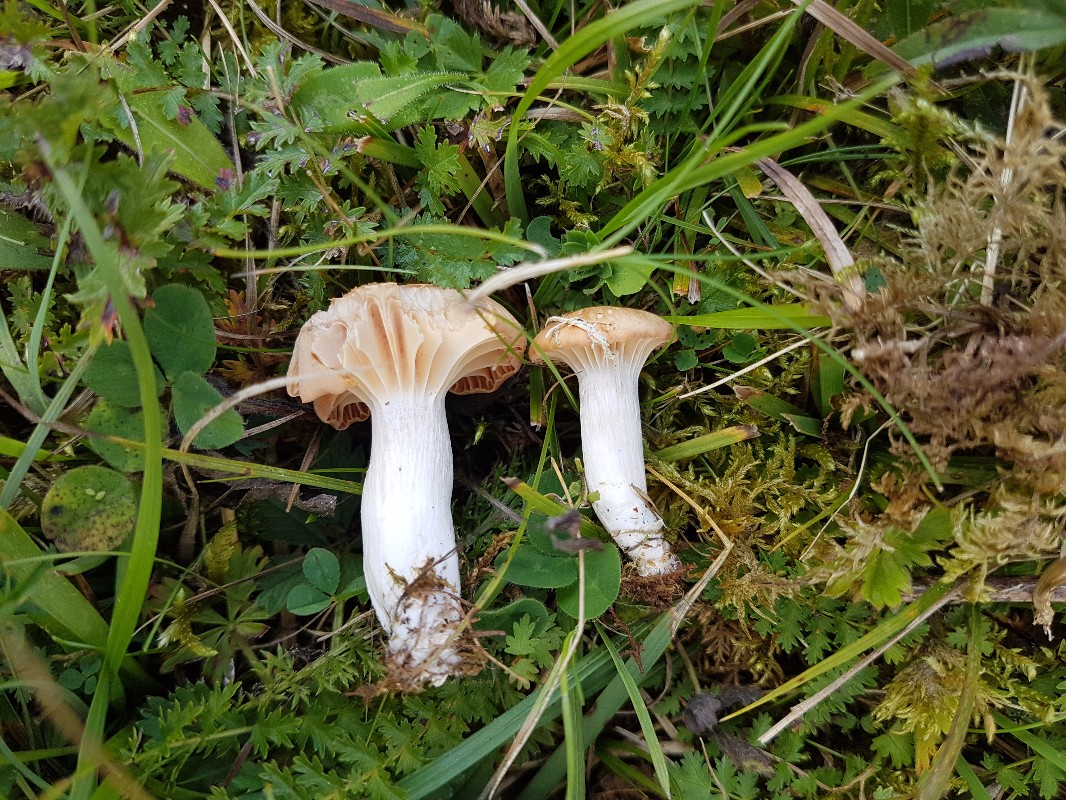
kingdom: Fungi
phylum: Basidiomycota
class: Agaricomycetes
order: Agaricales
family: Hygrophoraceae
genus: Cuphophyllus
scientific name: Cuphophyllus pratensis
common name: eng-vokshat
